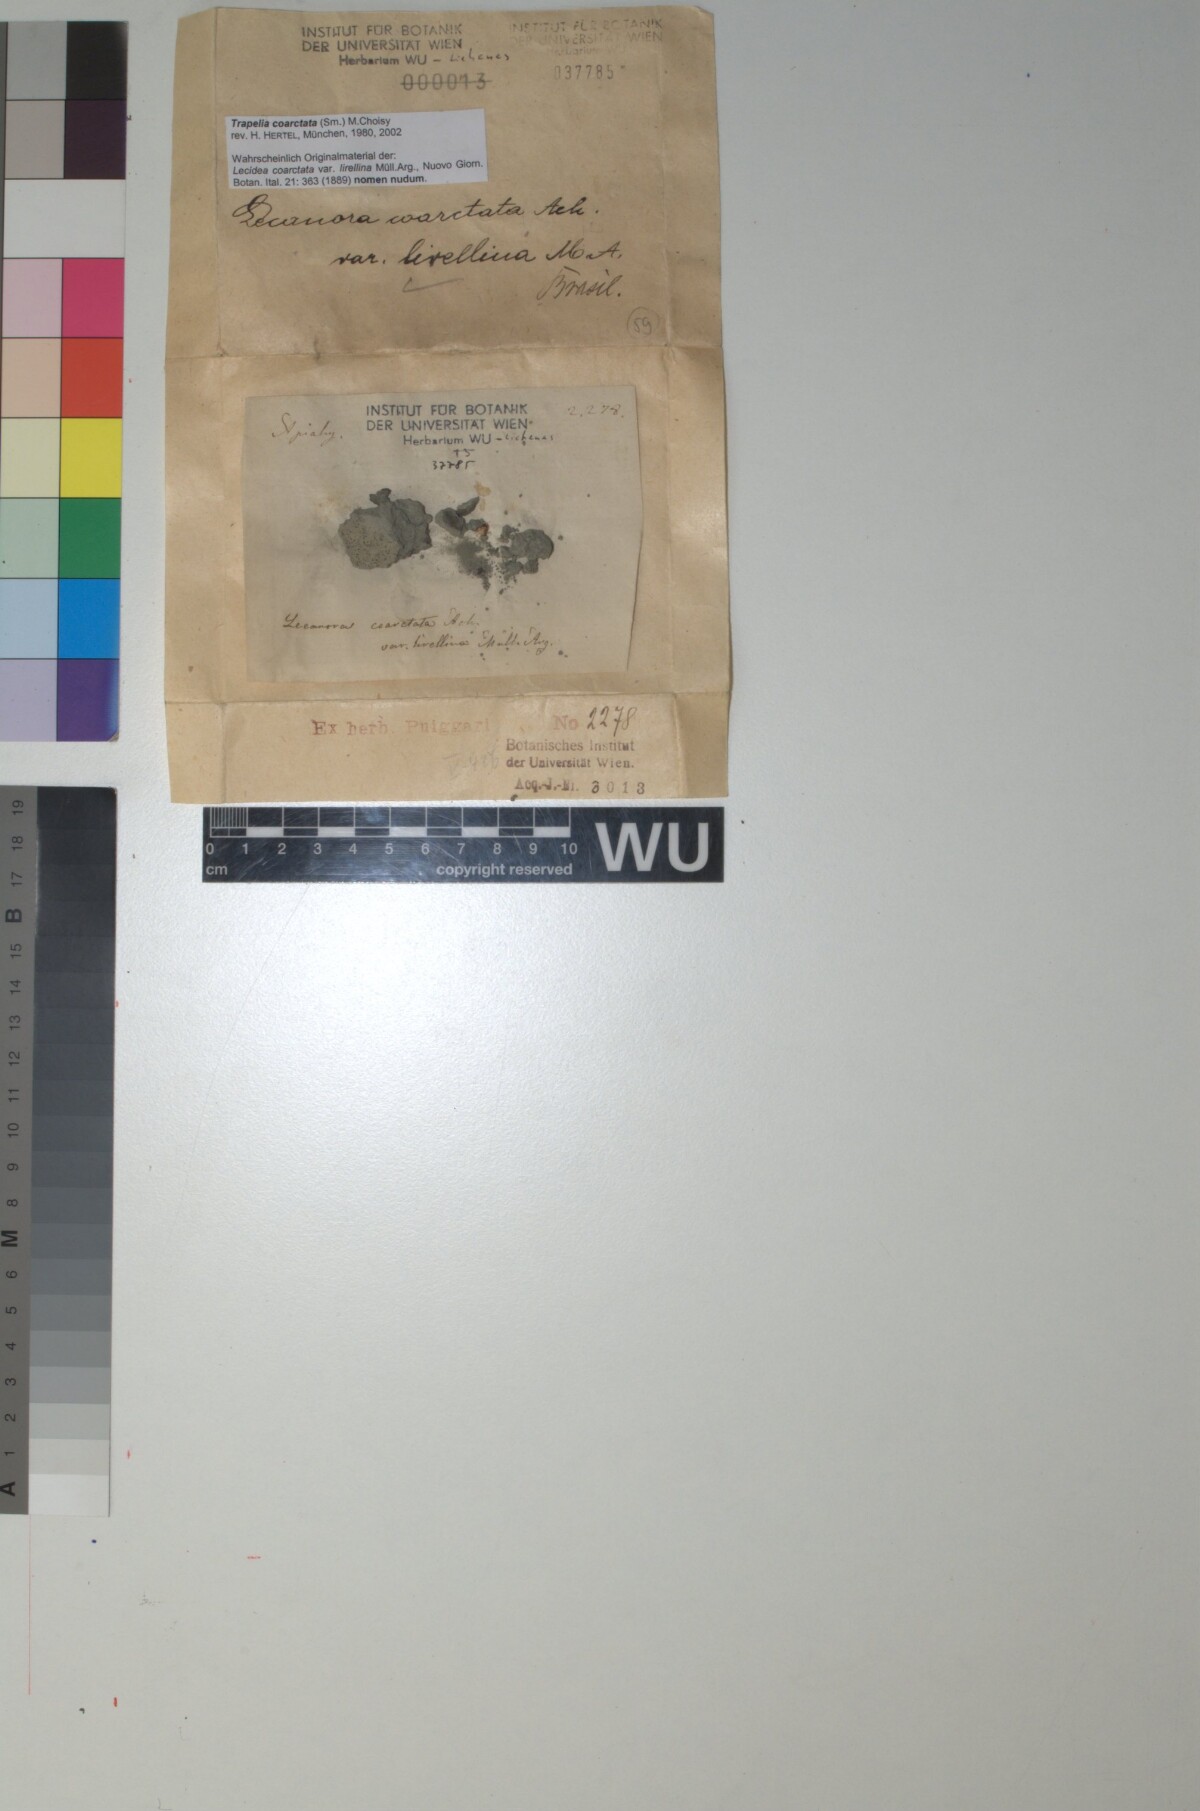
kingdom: Fungi
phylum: Ascomycota
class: Lecanoromycetes
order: Baeomycetales
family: Trapeliaceae
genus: Trapelia
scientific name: Trapelia coarctata
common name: White-edged stone lichen
